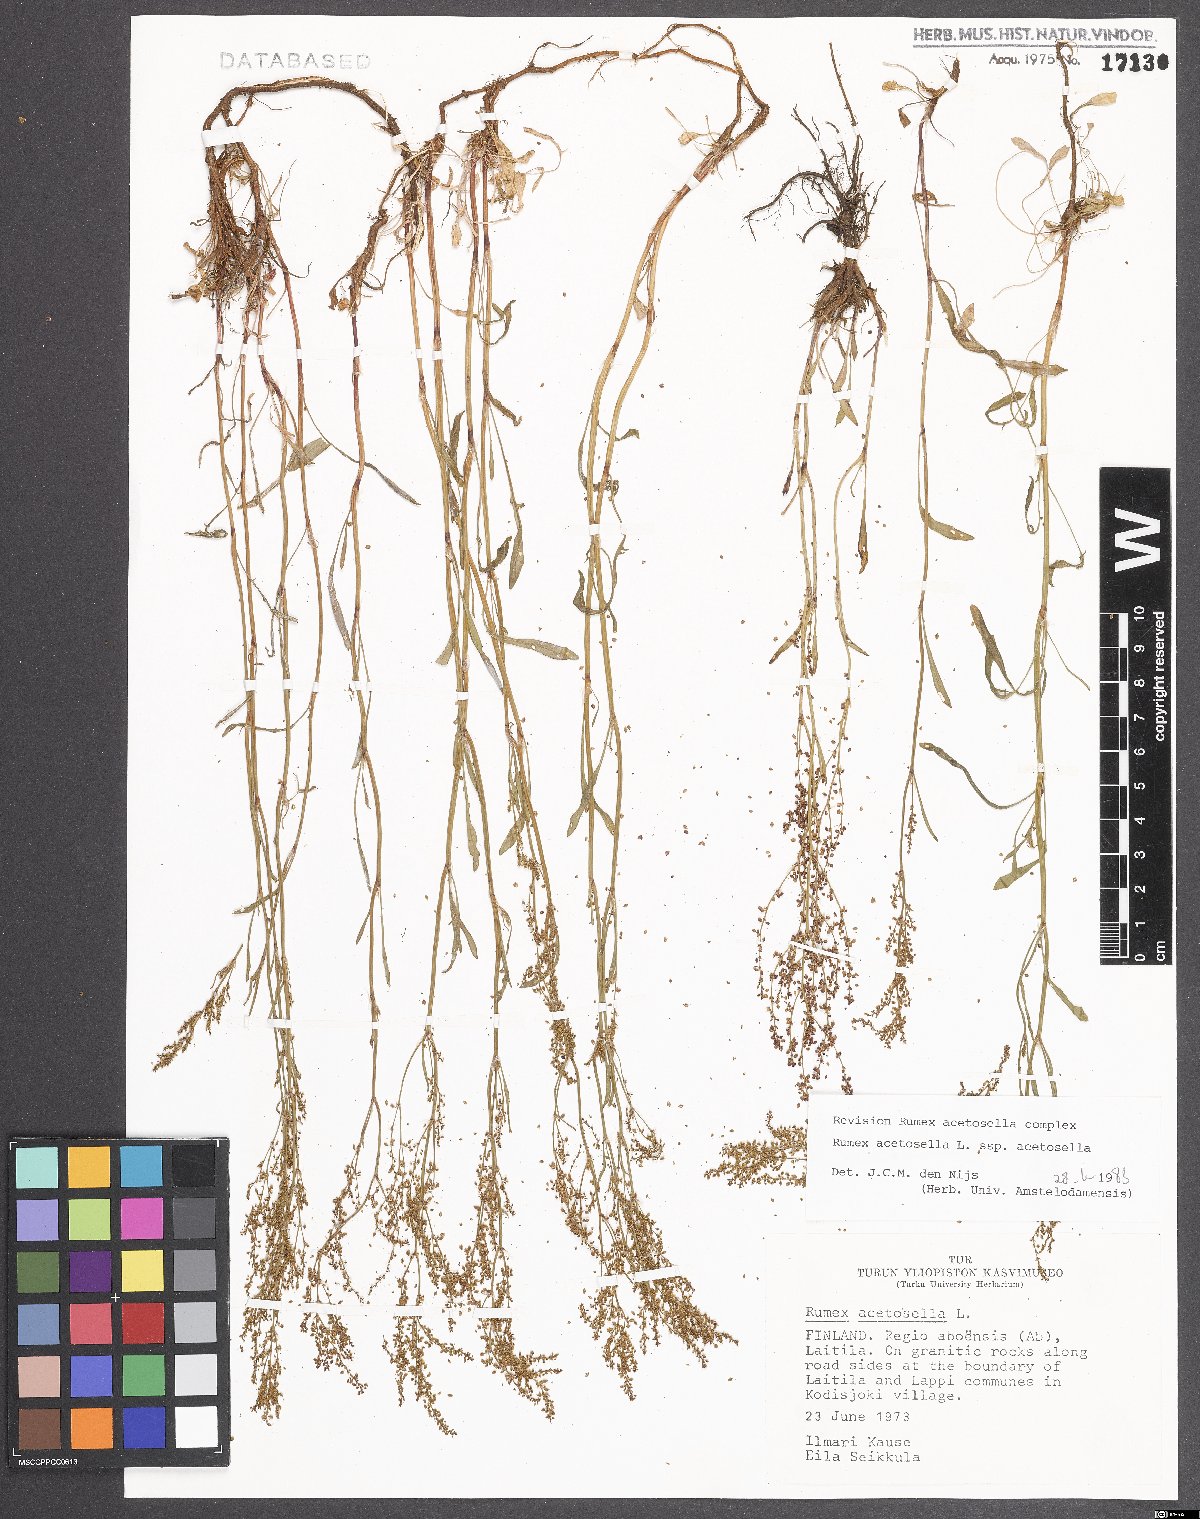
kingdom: Plantae
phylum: Tracheophyta
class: Magnoliopsida
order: Caryophyllales
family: Polygonaceae
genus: Rumex
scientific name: Rumex acetosella
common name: Common sheep sorrel
